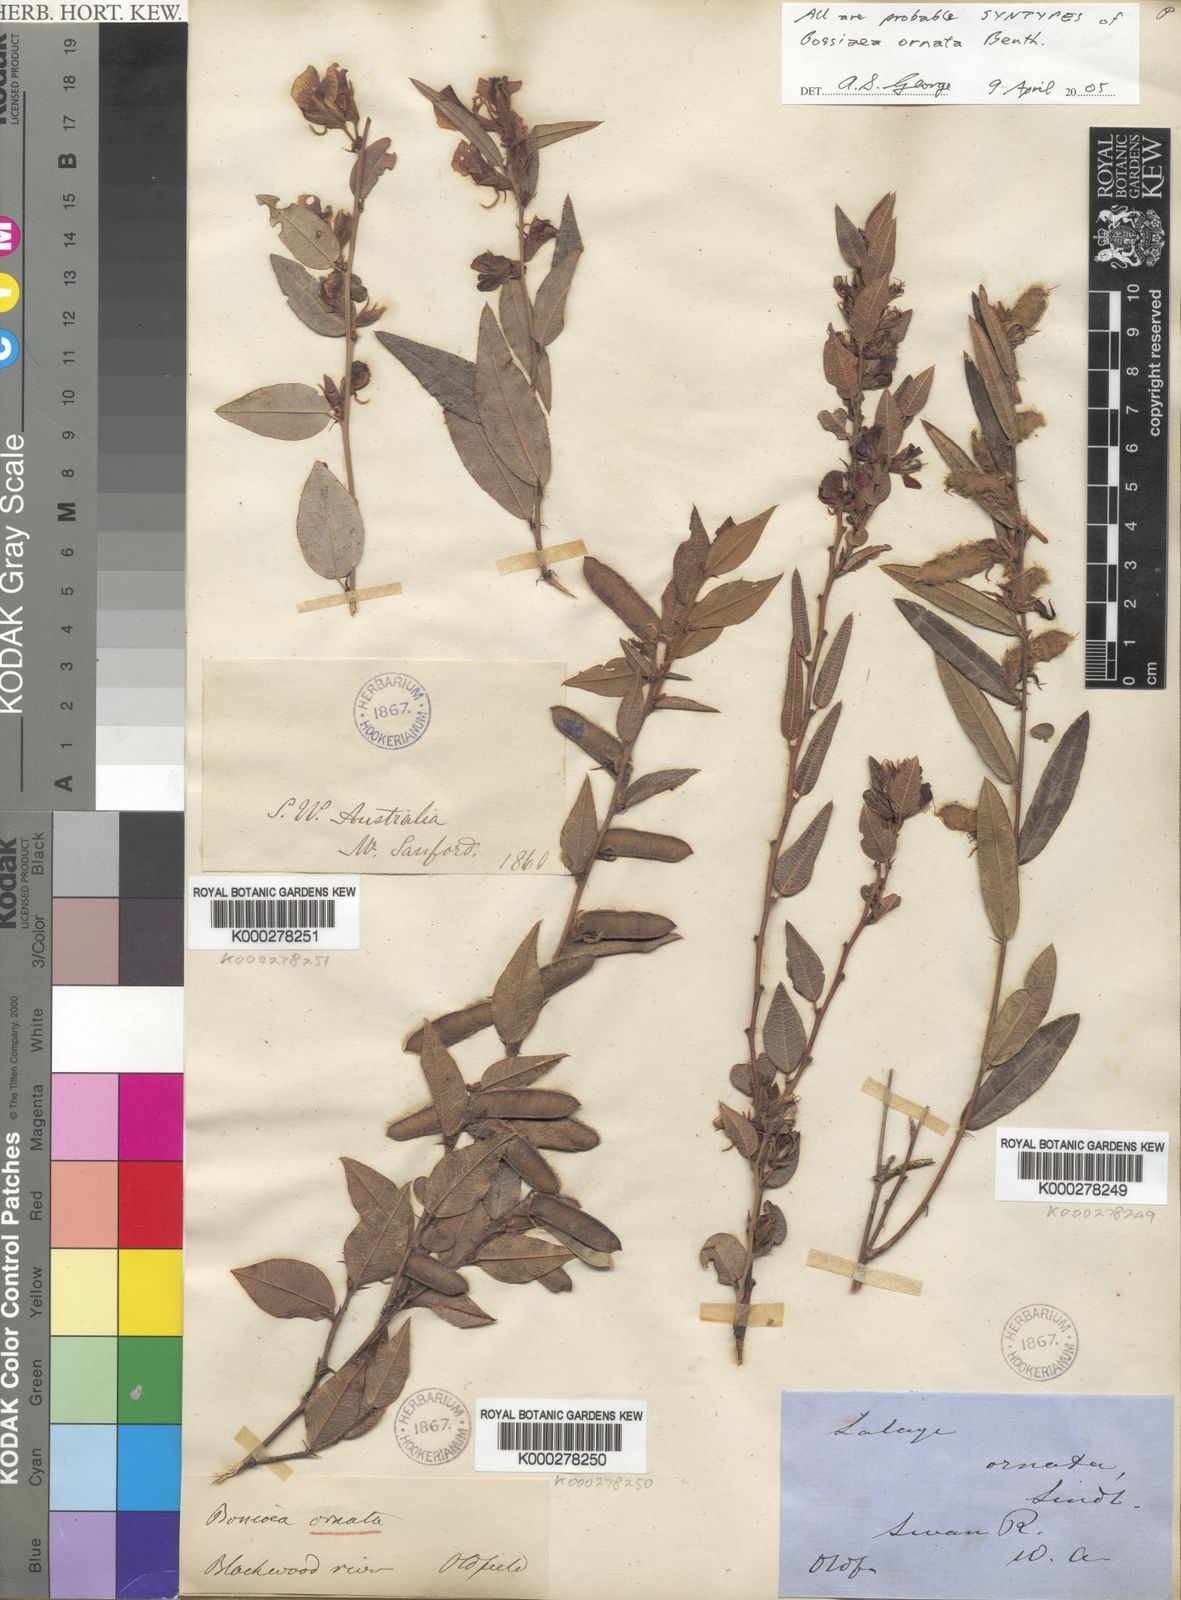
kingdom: Plantae
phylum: Tracheophyta
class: Magnoliopsida
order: Fabales
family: Fabaceae
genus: Bossiaea
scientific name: Bossiaea ornata
